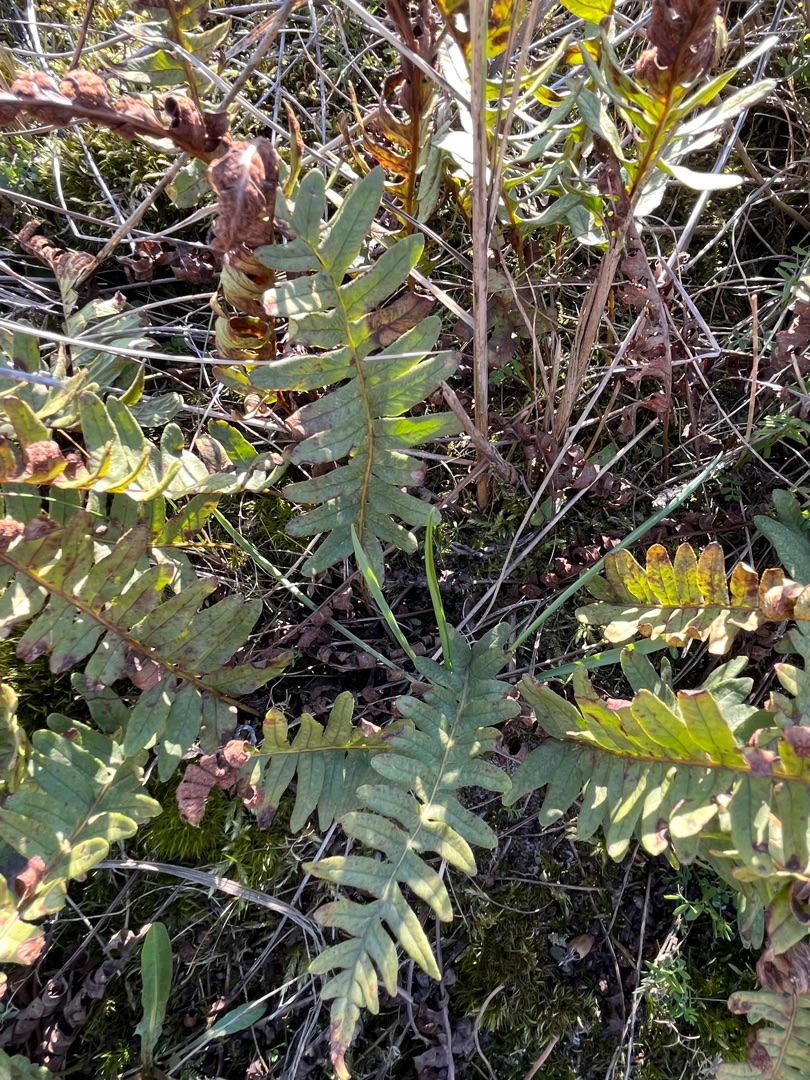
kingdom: Plantae
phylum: Tracheophyta
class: Polypodiopsida
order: Polypodiales
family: Polypodiaceae
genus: Polypodium
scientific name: Polypodium vulgare
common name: Almindelig engelsød
